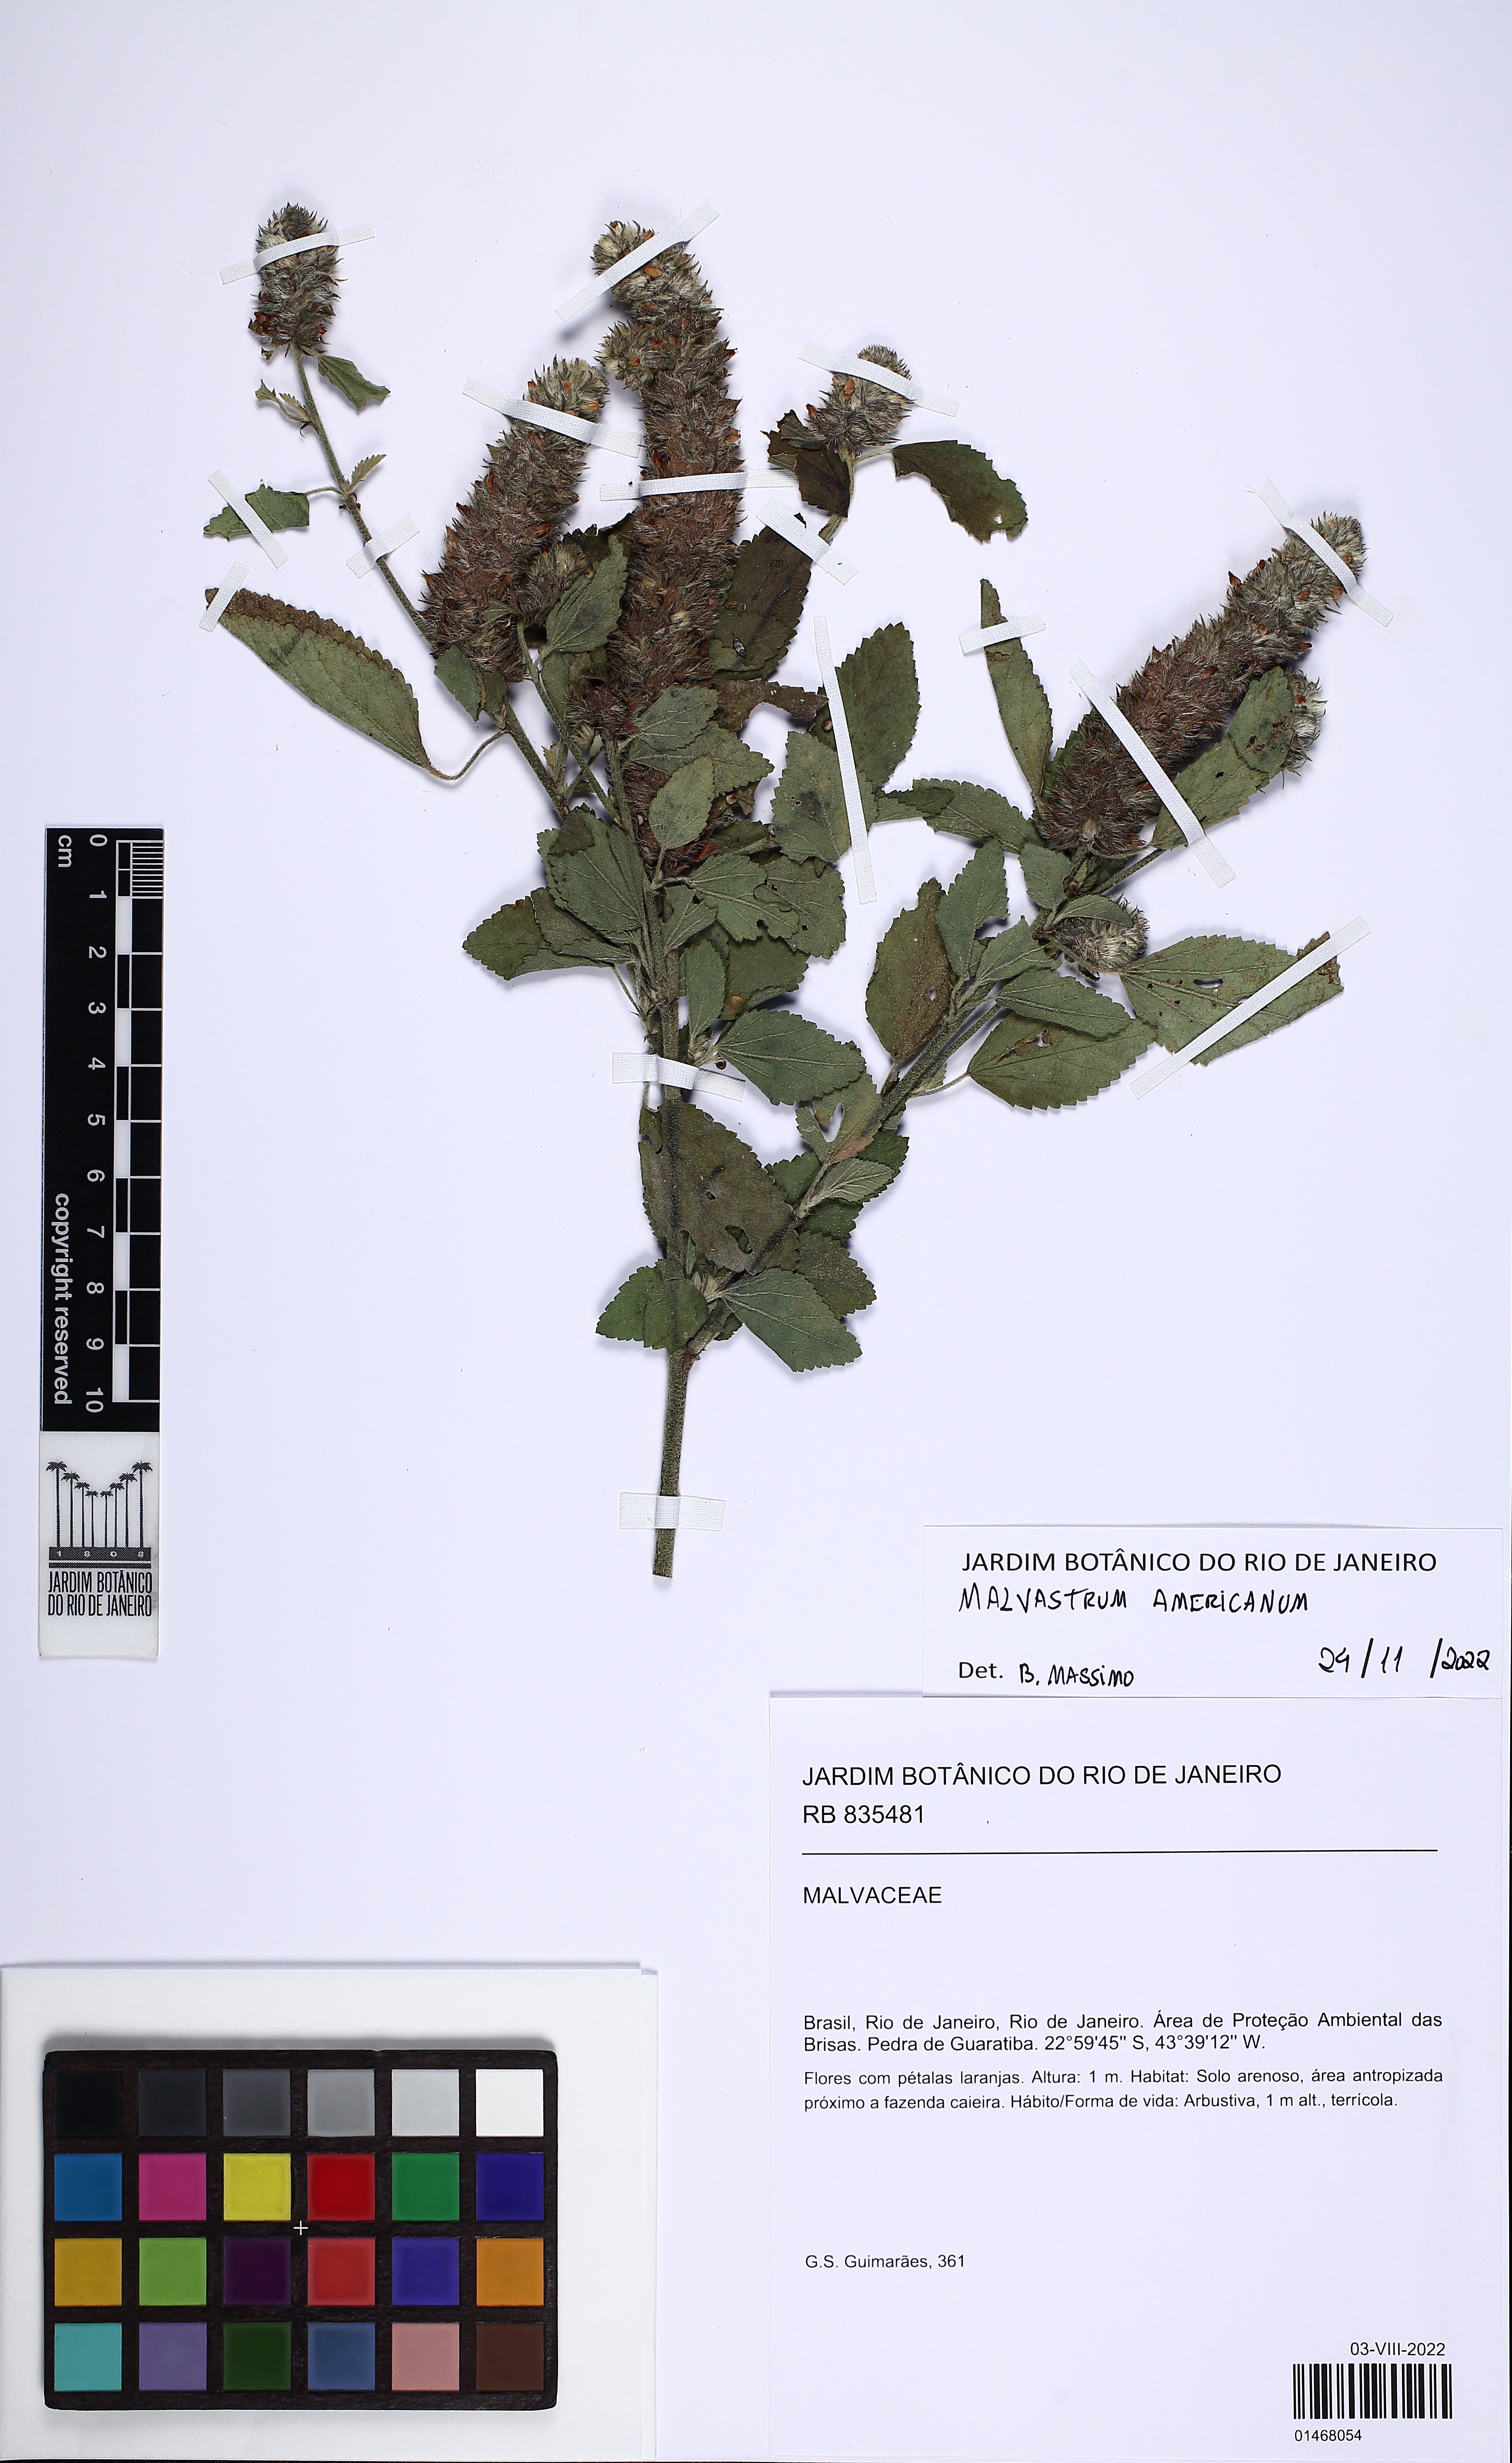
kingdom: Plantae
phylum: Tracheophyta
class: Magnoliopsida
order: Malvales
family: Malvaceae
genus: Malvastrum
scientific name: Malvastrum americanum
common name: Spiked malvastrum
